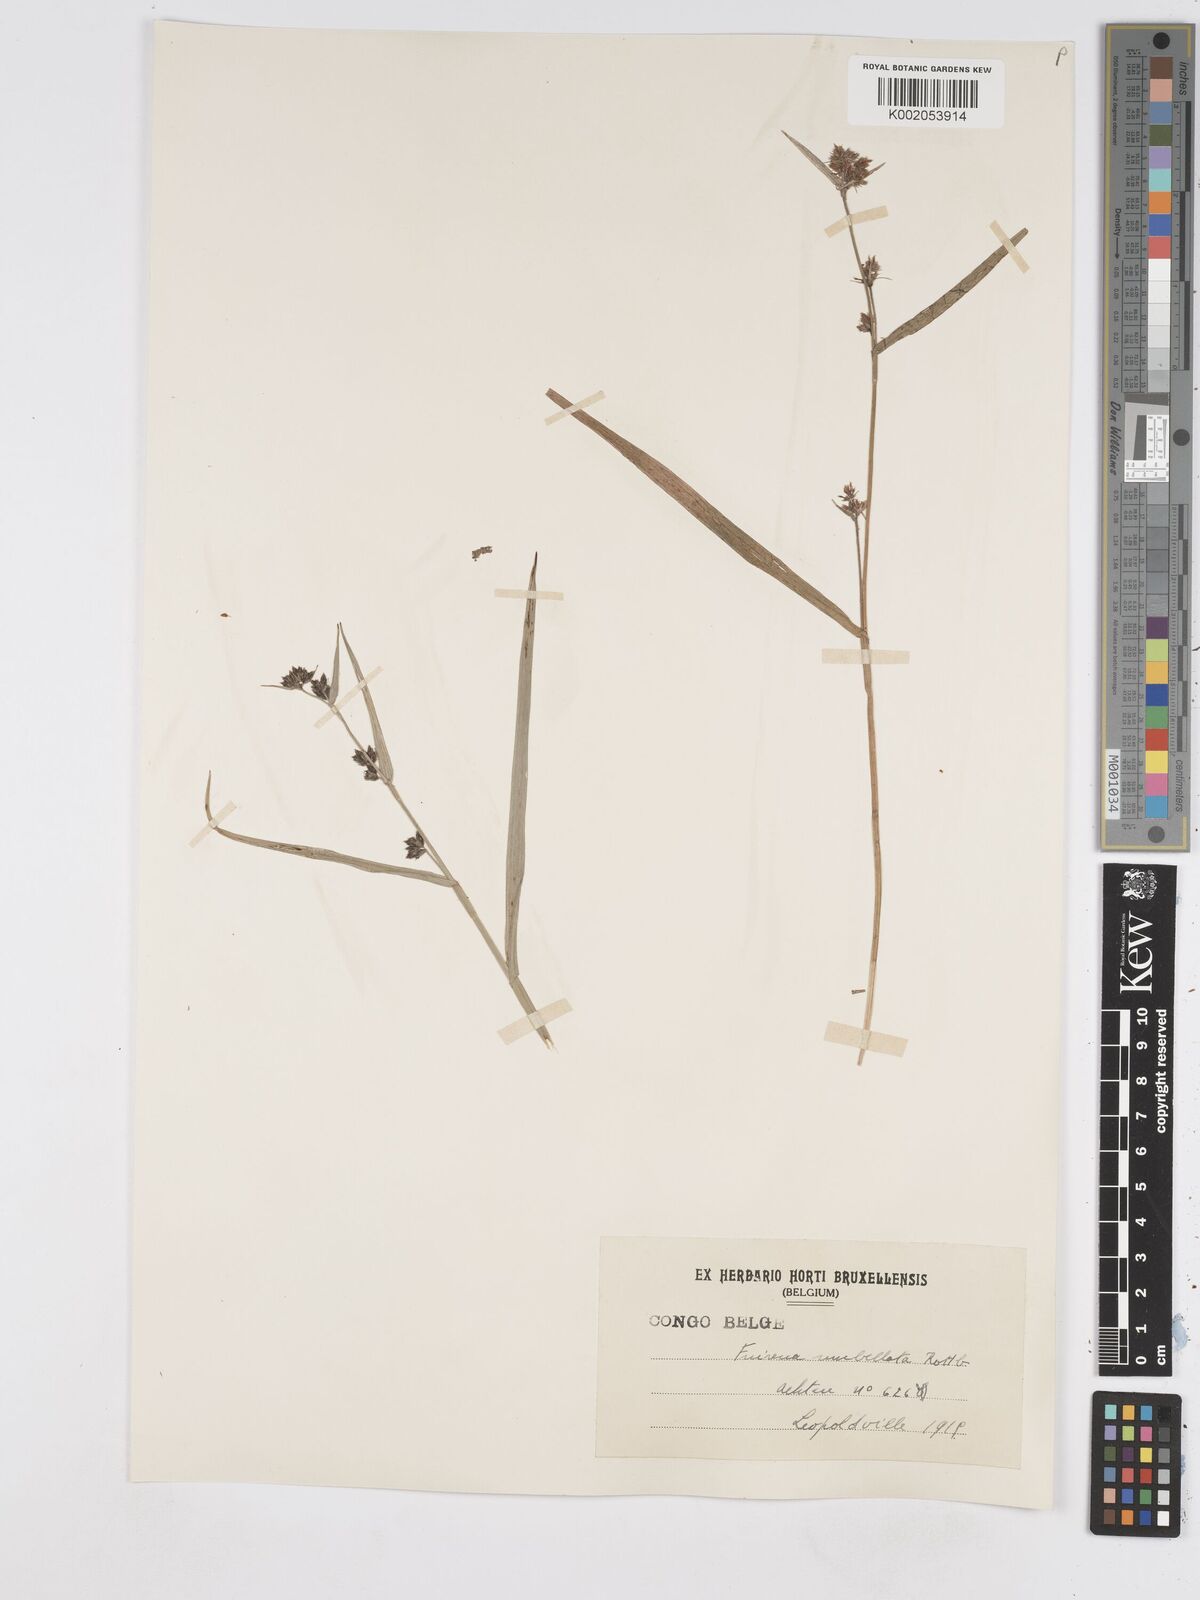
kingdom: Plantae
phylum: Tracheophyta
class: Liliopsida
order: Poales
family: Cyperaceae
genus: Fuirena
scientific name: Fuirena umbellata
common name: Yefen
